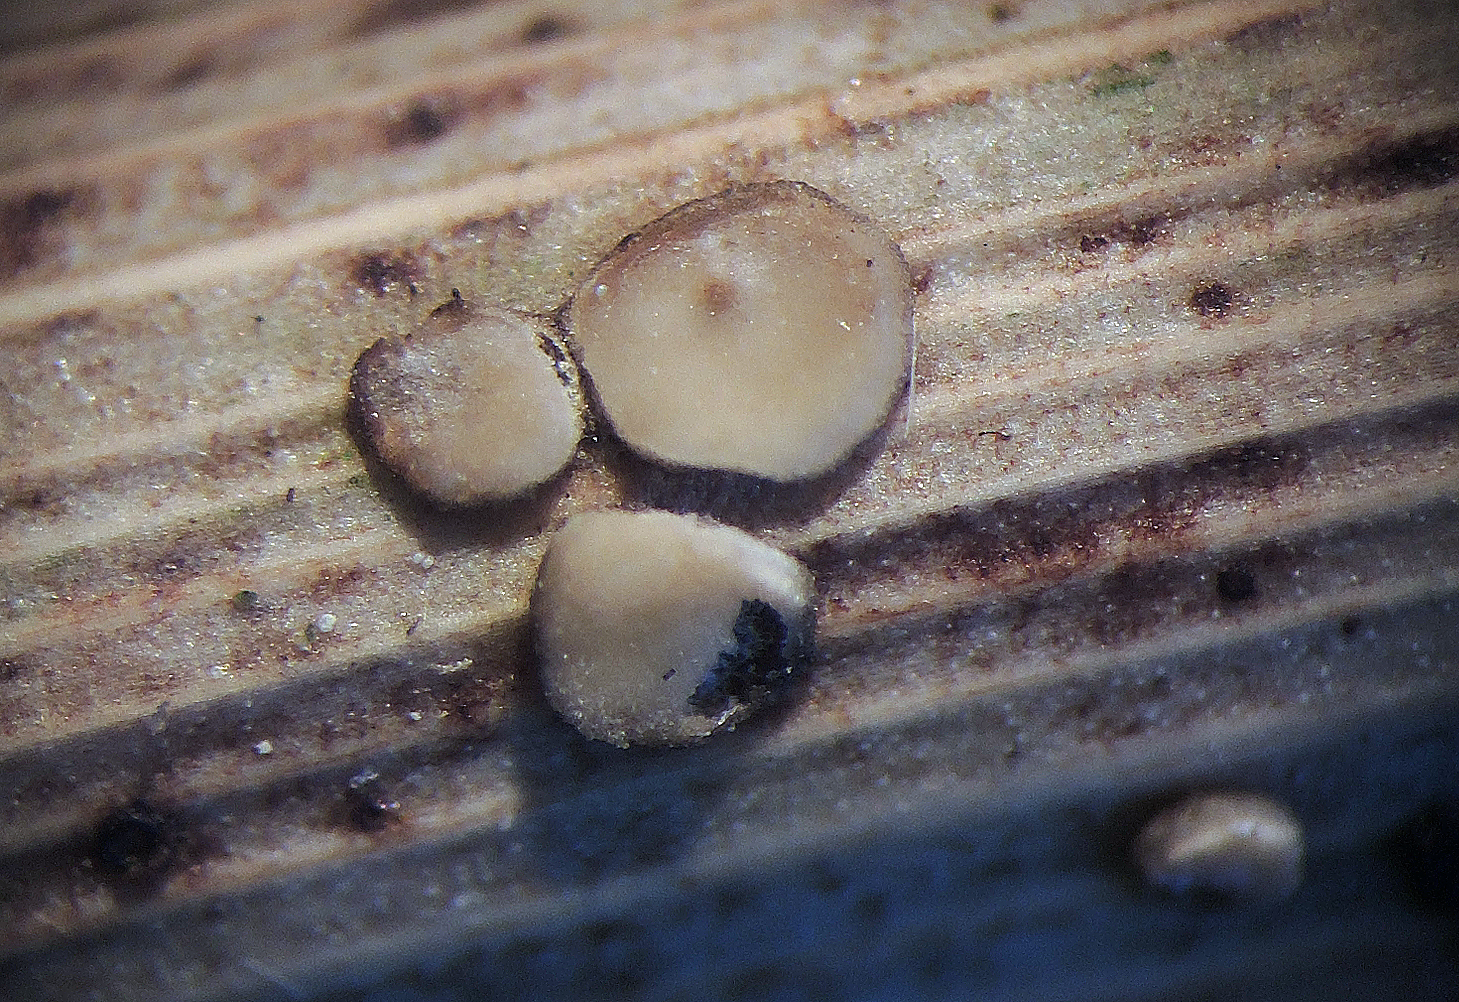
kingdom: Fungi
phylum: Ascomycota
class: Leotiomycetes
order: Helotiales
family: Pezizellaceae
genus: Calycellina
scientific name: Calycellina phalaridis
